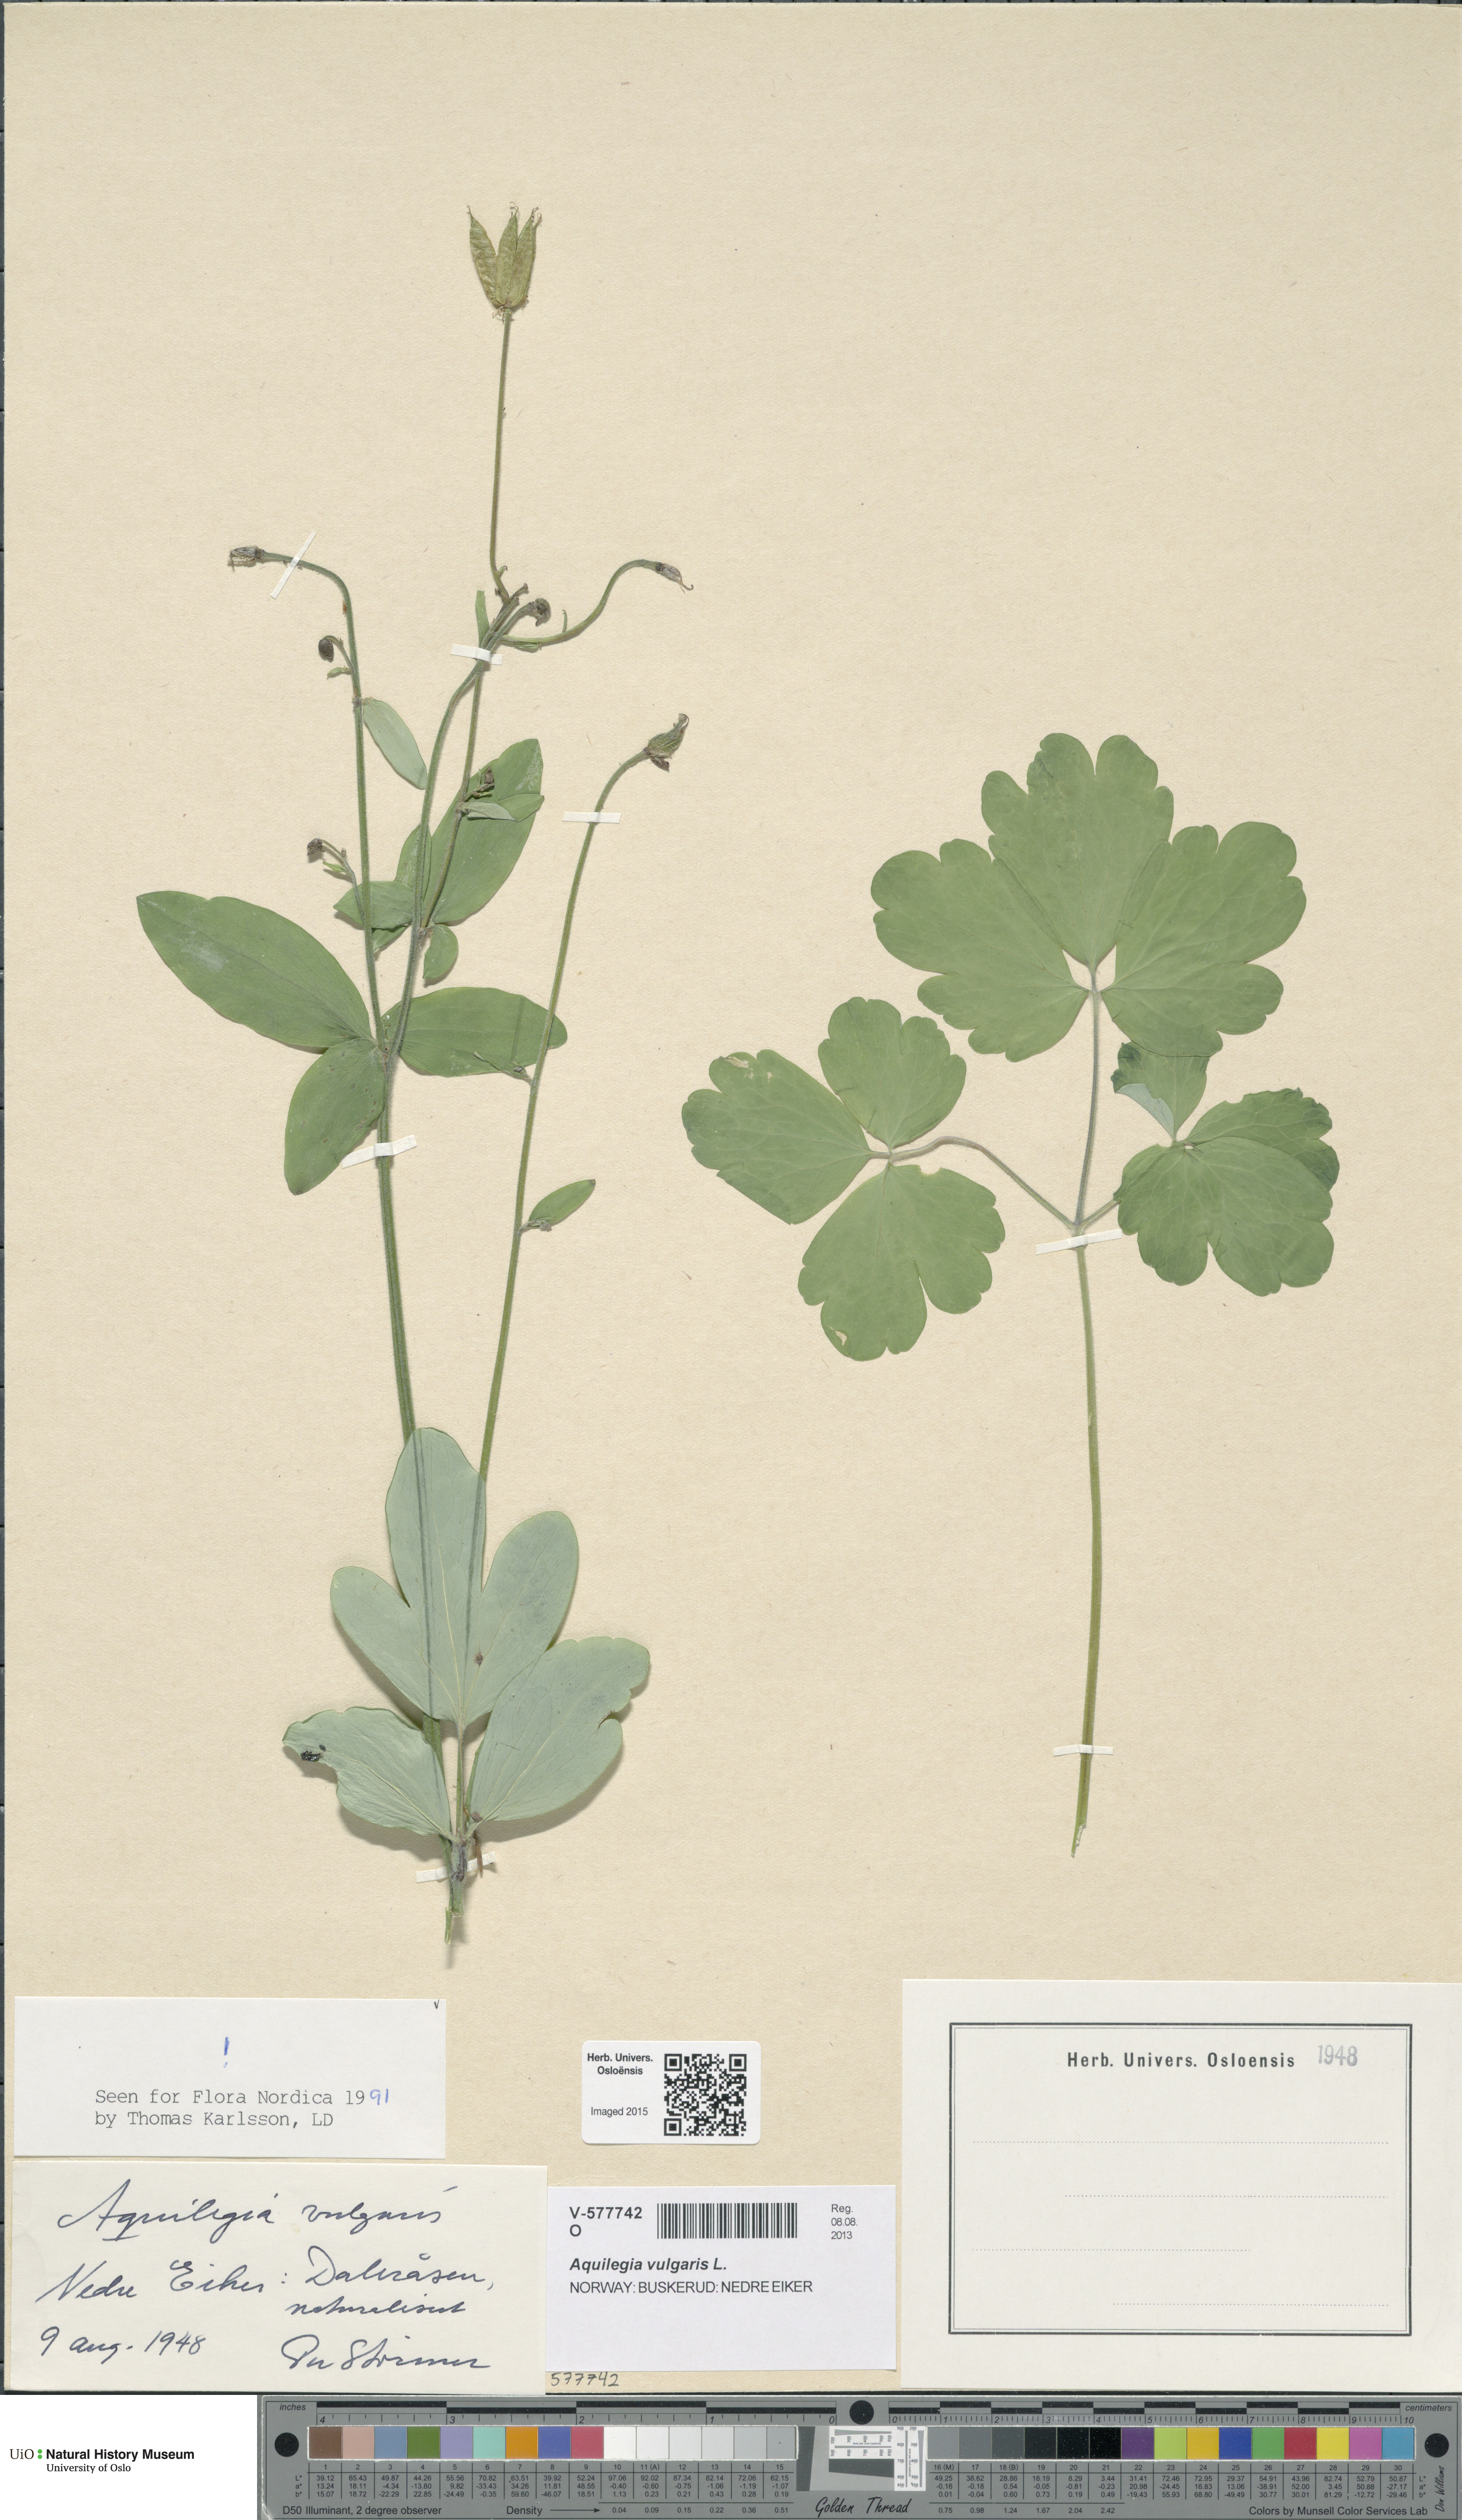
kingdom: Plantae
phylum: Tracheophyta
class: Magnoliopsida
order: Ranunculales
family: Ranunculaceae
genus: Aquilegia
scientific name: Aquilegia vulgaris
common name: Columbine
